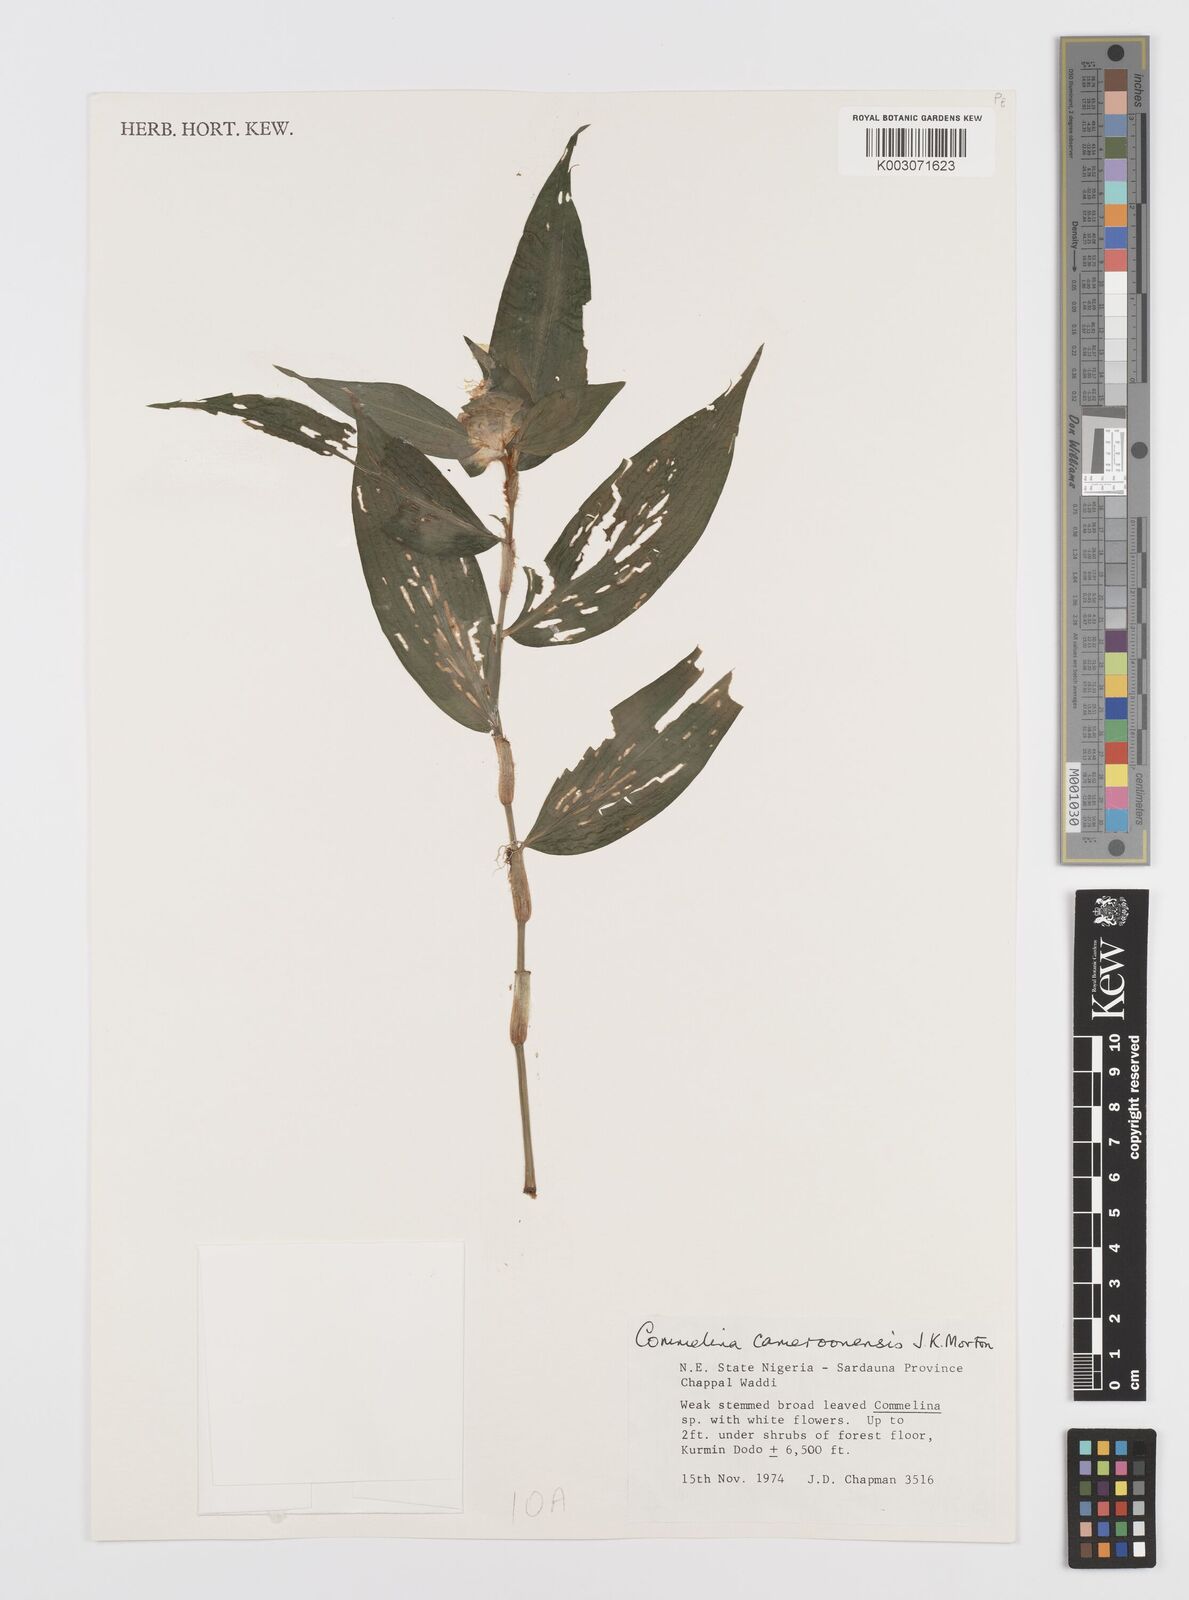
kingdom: Plantae
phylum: Tracheophyta
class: Liliopsida
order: Commelinales
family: Commelinaceae
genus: Commelina
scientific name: Commelina cameroonensis
